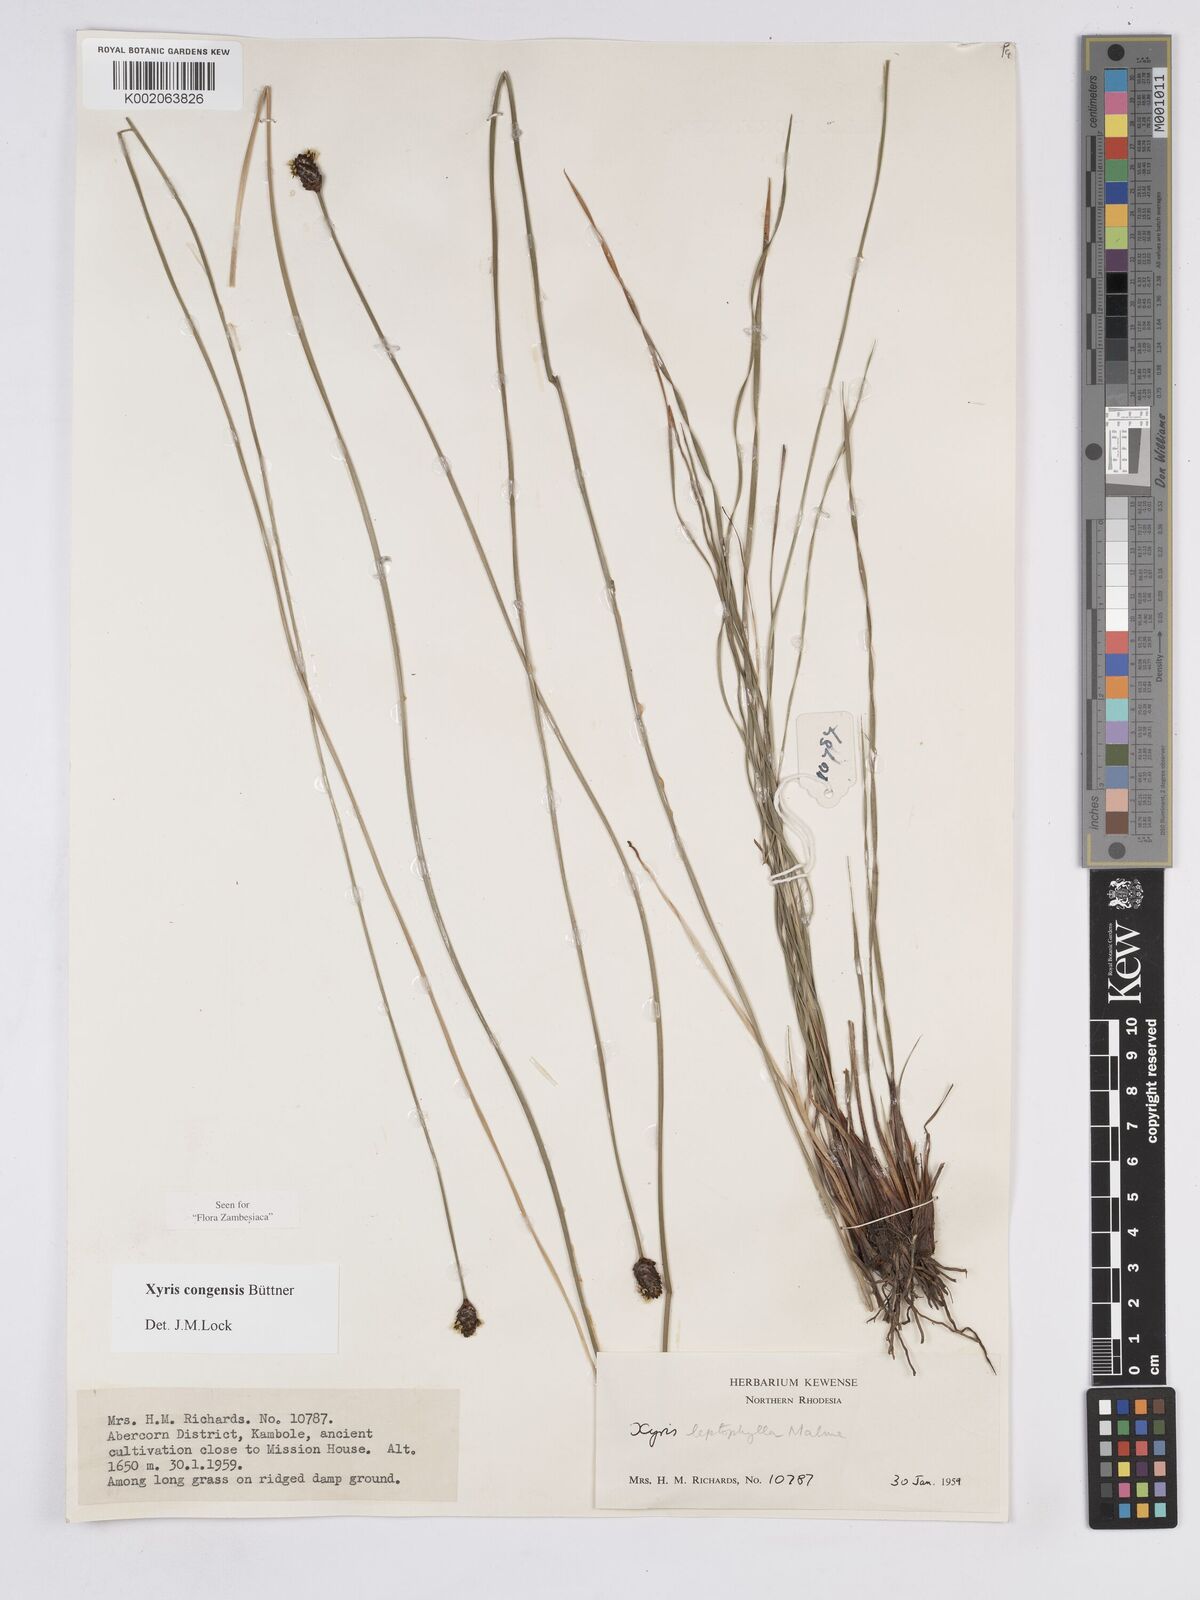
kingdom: Plantae
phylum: Tracheophyta
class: Liliopsida
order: Poales
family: Xyridaceae
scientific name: Xyridaceae
